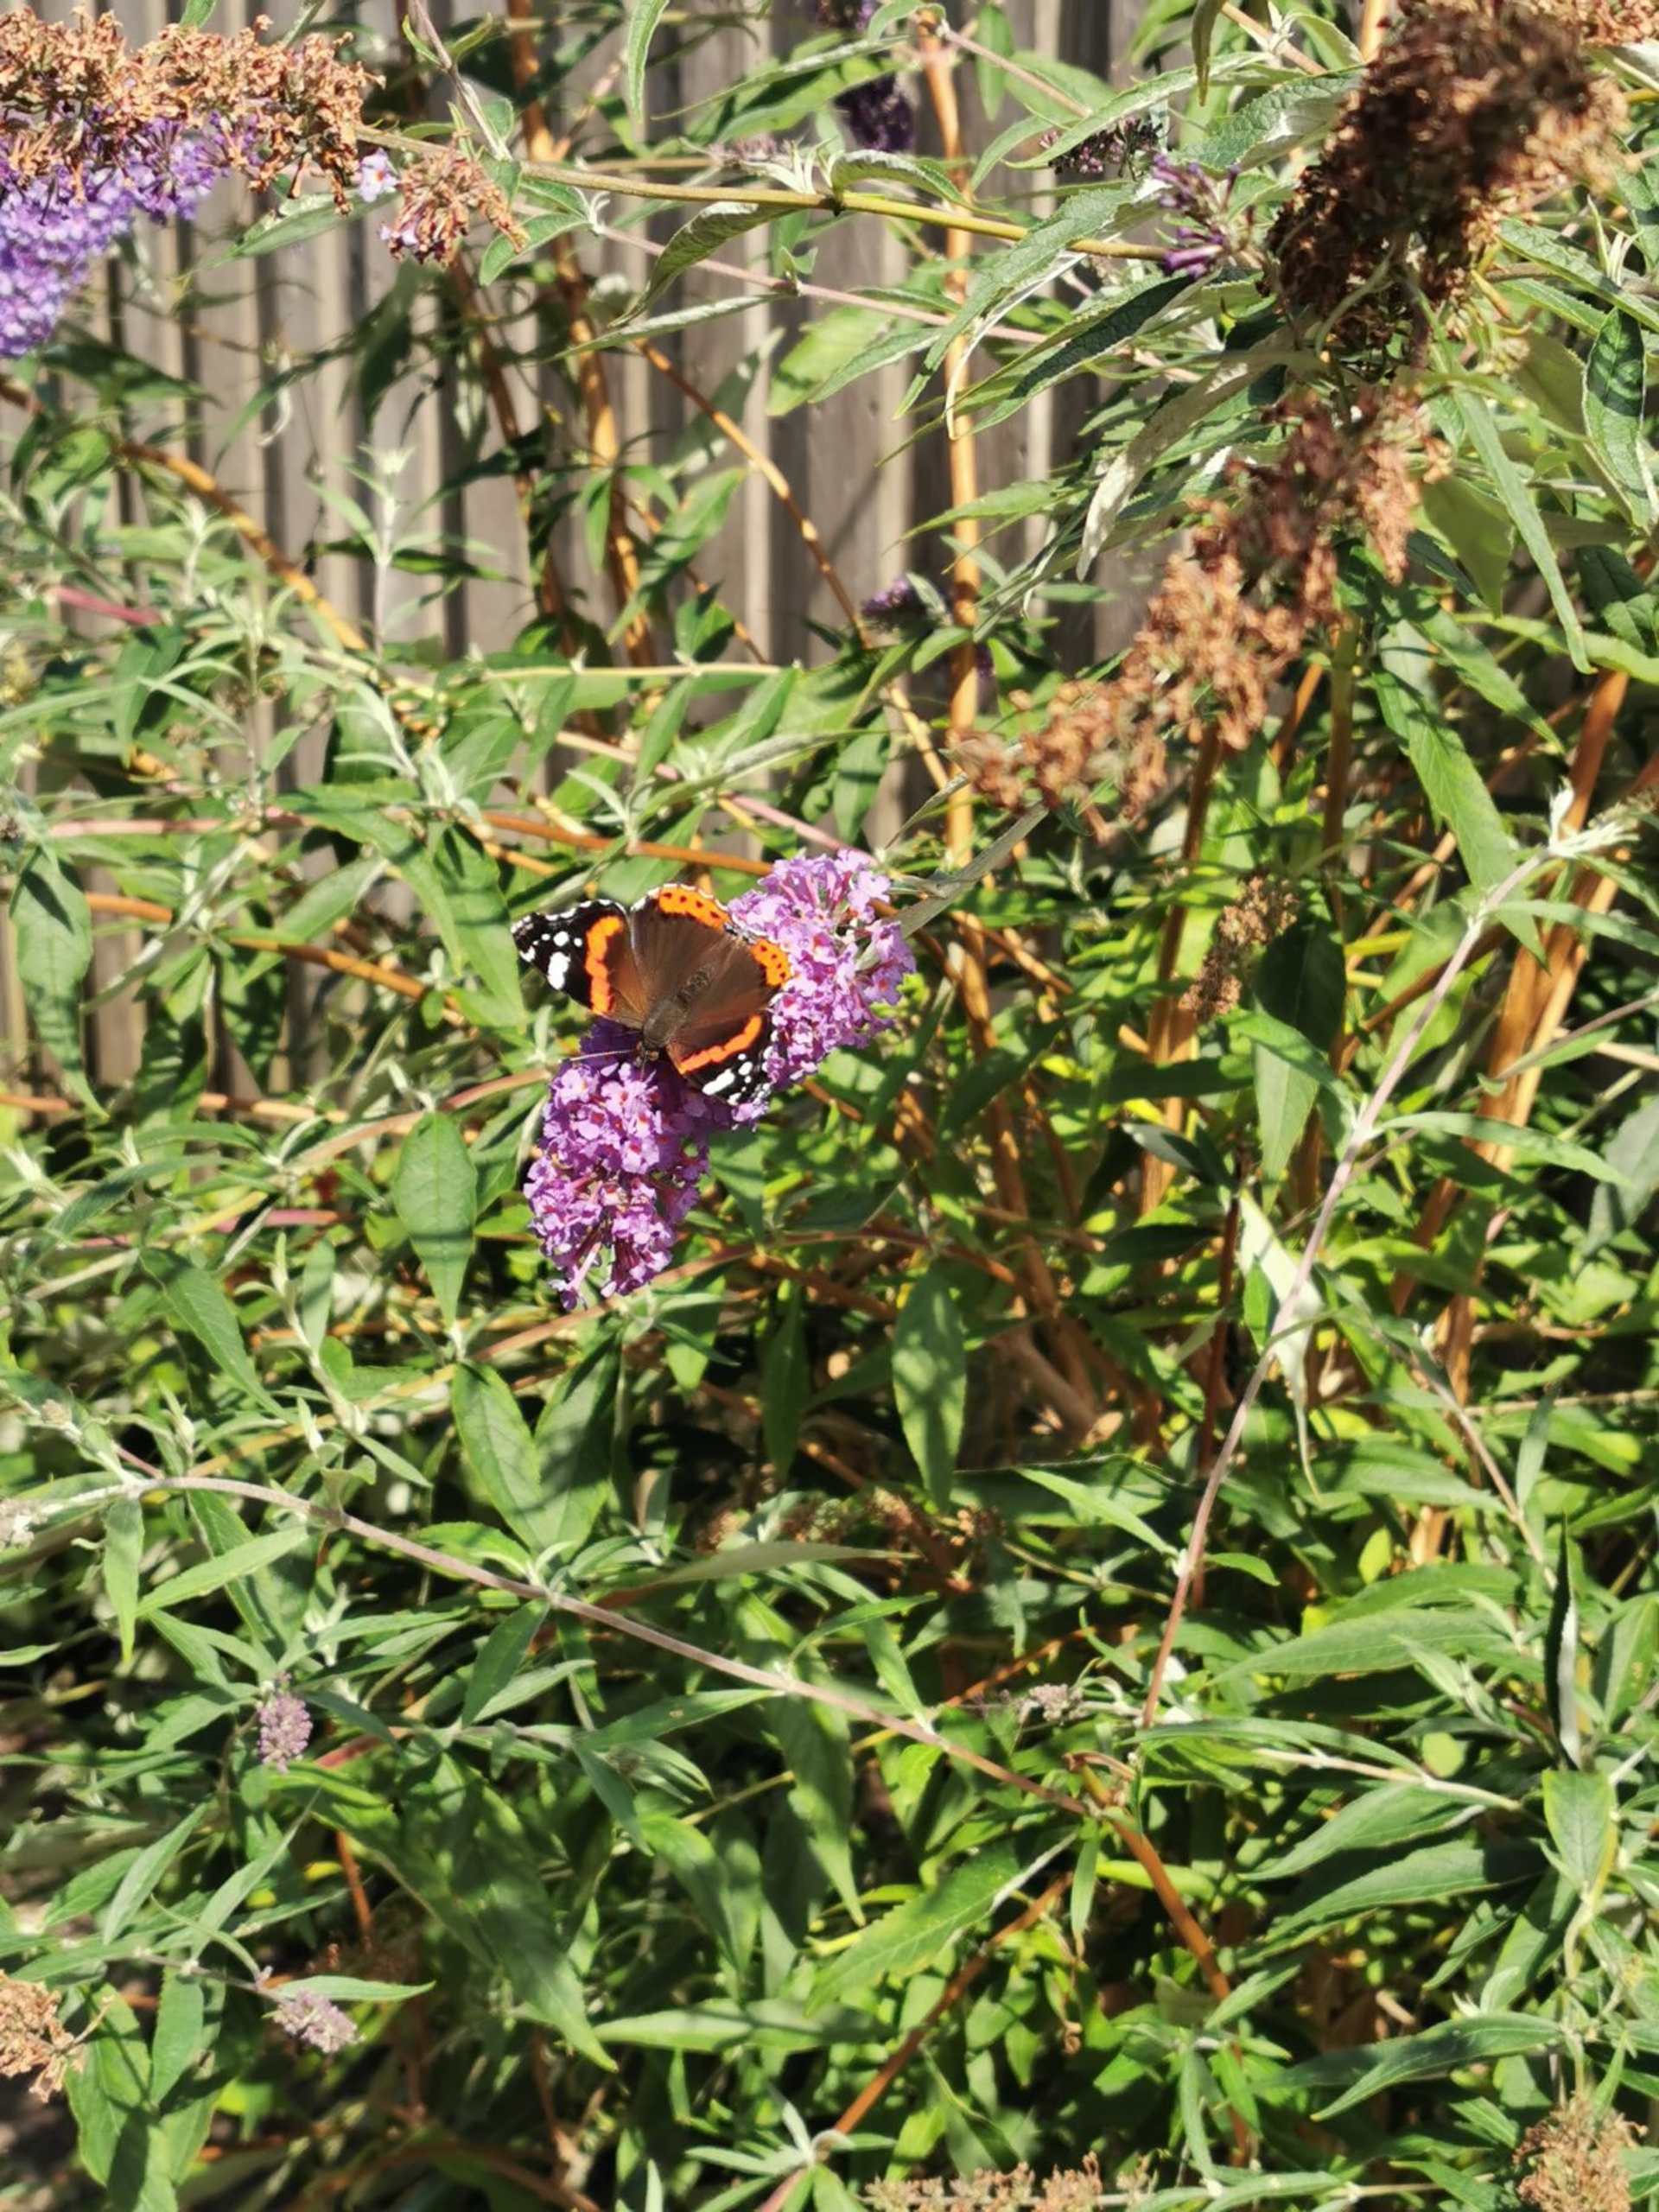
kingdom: Animalia
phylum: Arthropoda
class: Insecta
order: Lepidoptera
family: Nymphalidae
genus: Vanessa
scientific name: Vanessa atalanta
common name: Admiral
